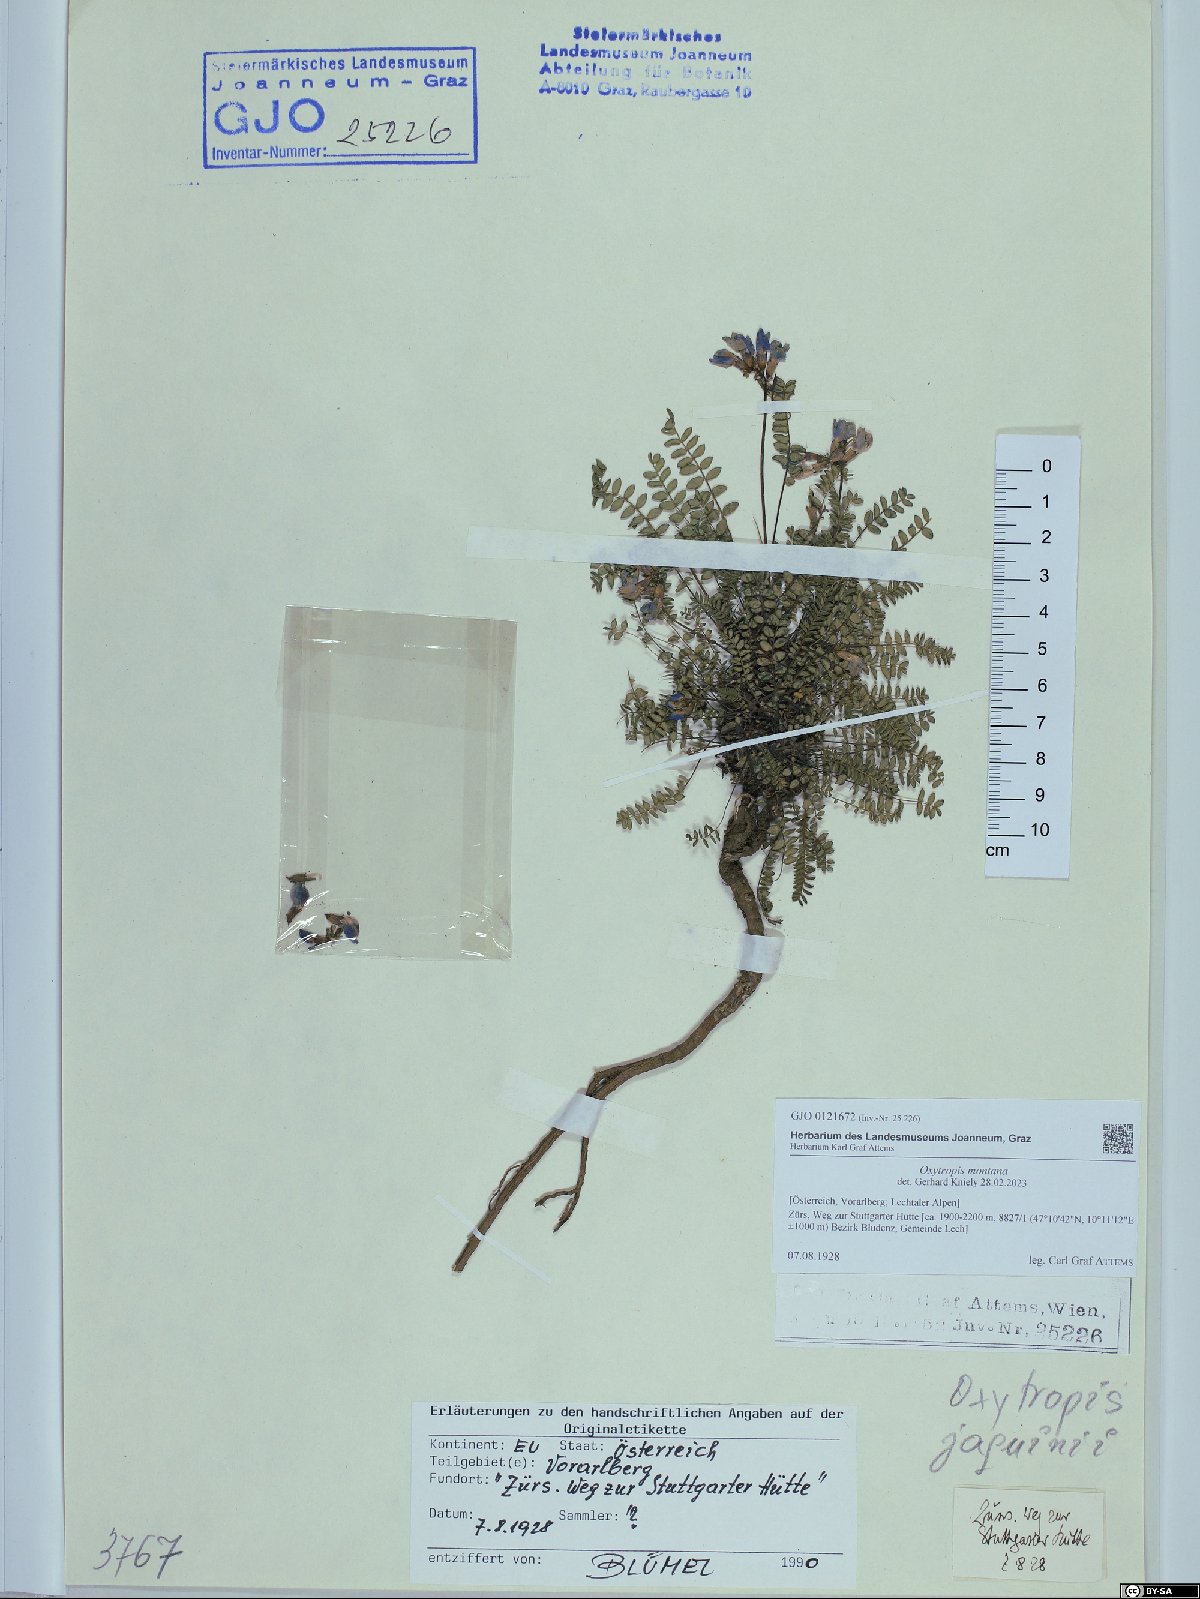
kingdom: Plantae
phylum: Tracheophyta
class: Magnoliopsida
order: Fabales
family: Fabaceae
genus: Oxytropis
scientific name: Oxytropis montana
